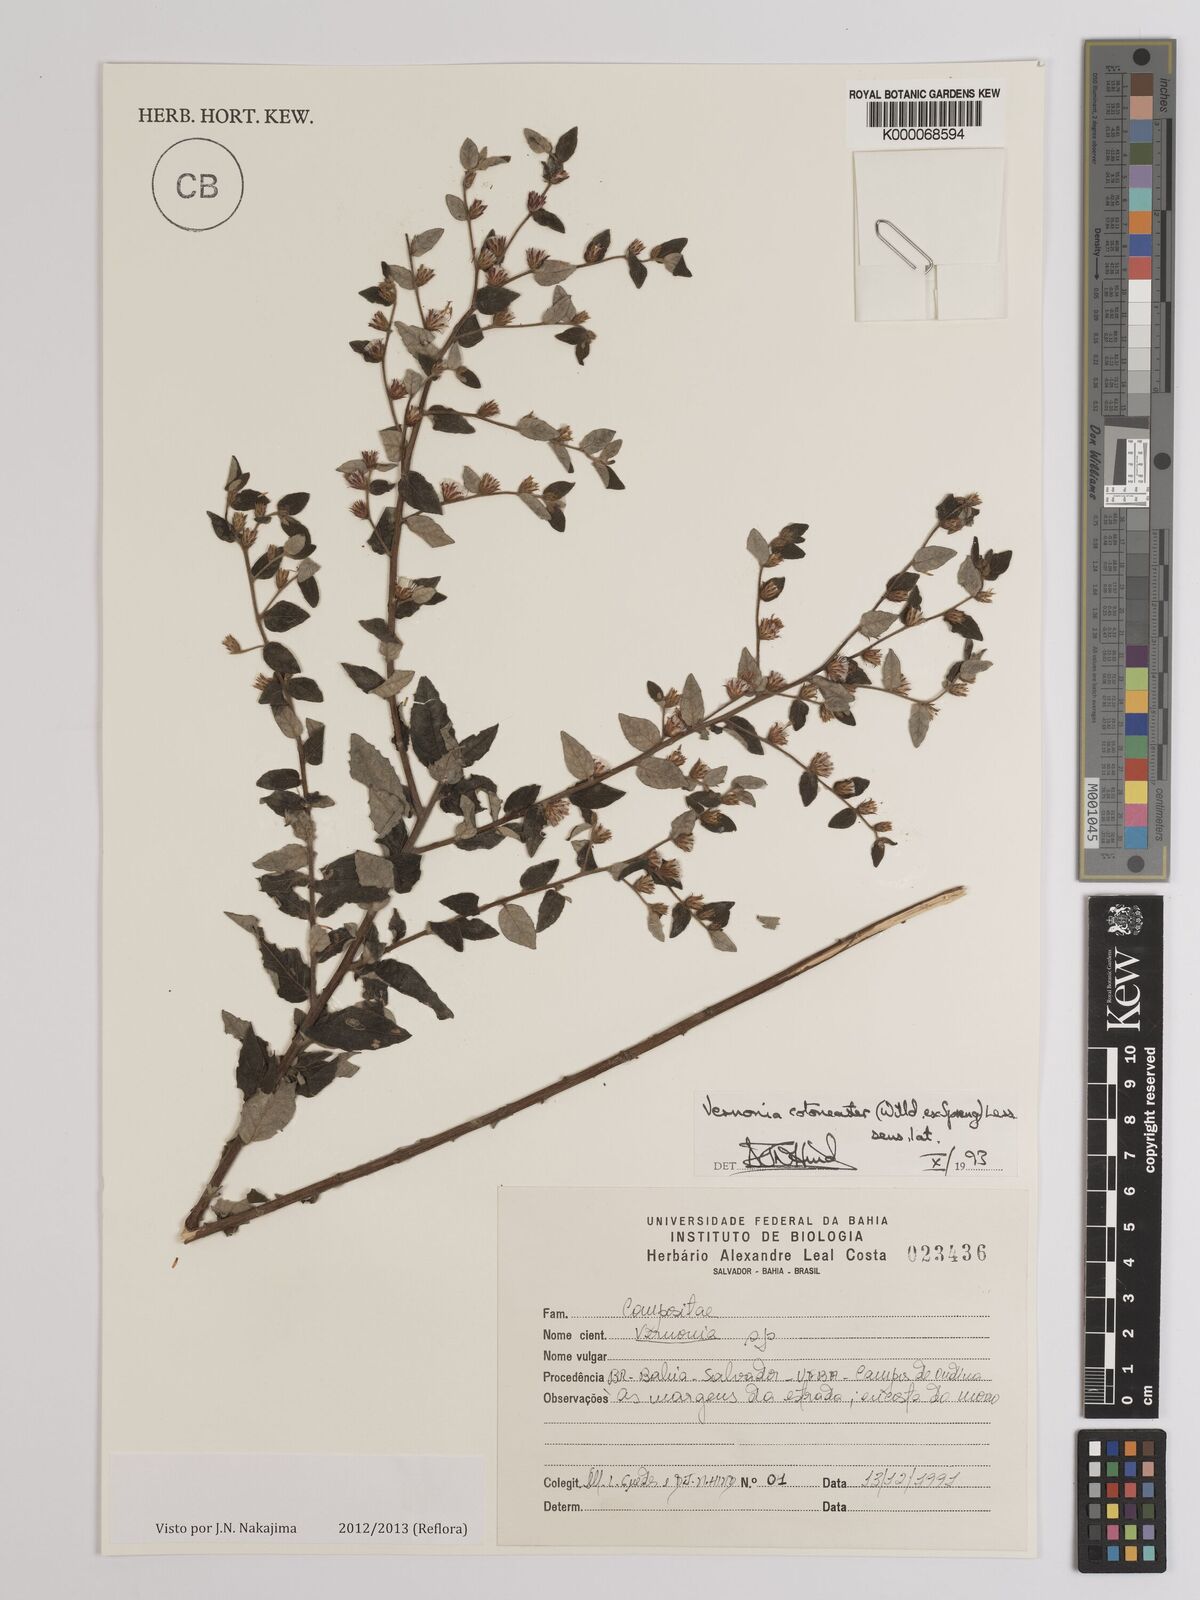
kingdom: Plantae
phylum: Tracheophyta
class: Magnoliopsida
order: Asterales
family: Asteraceae
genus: Lepidaploa
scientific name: Lepidaploa cotoneaster
